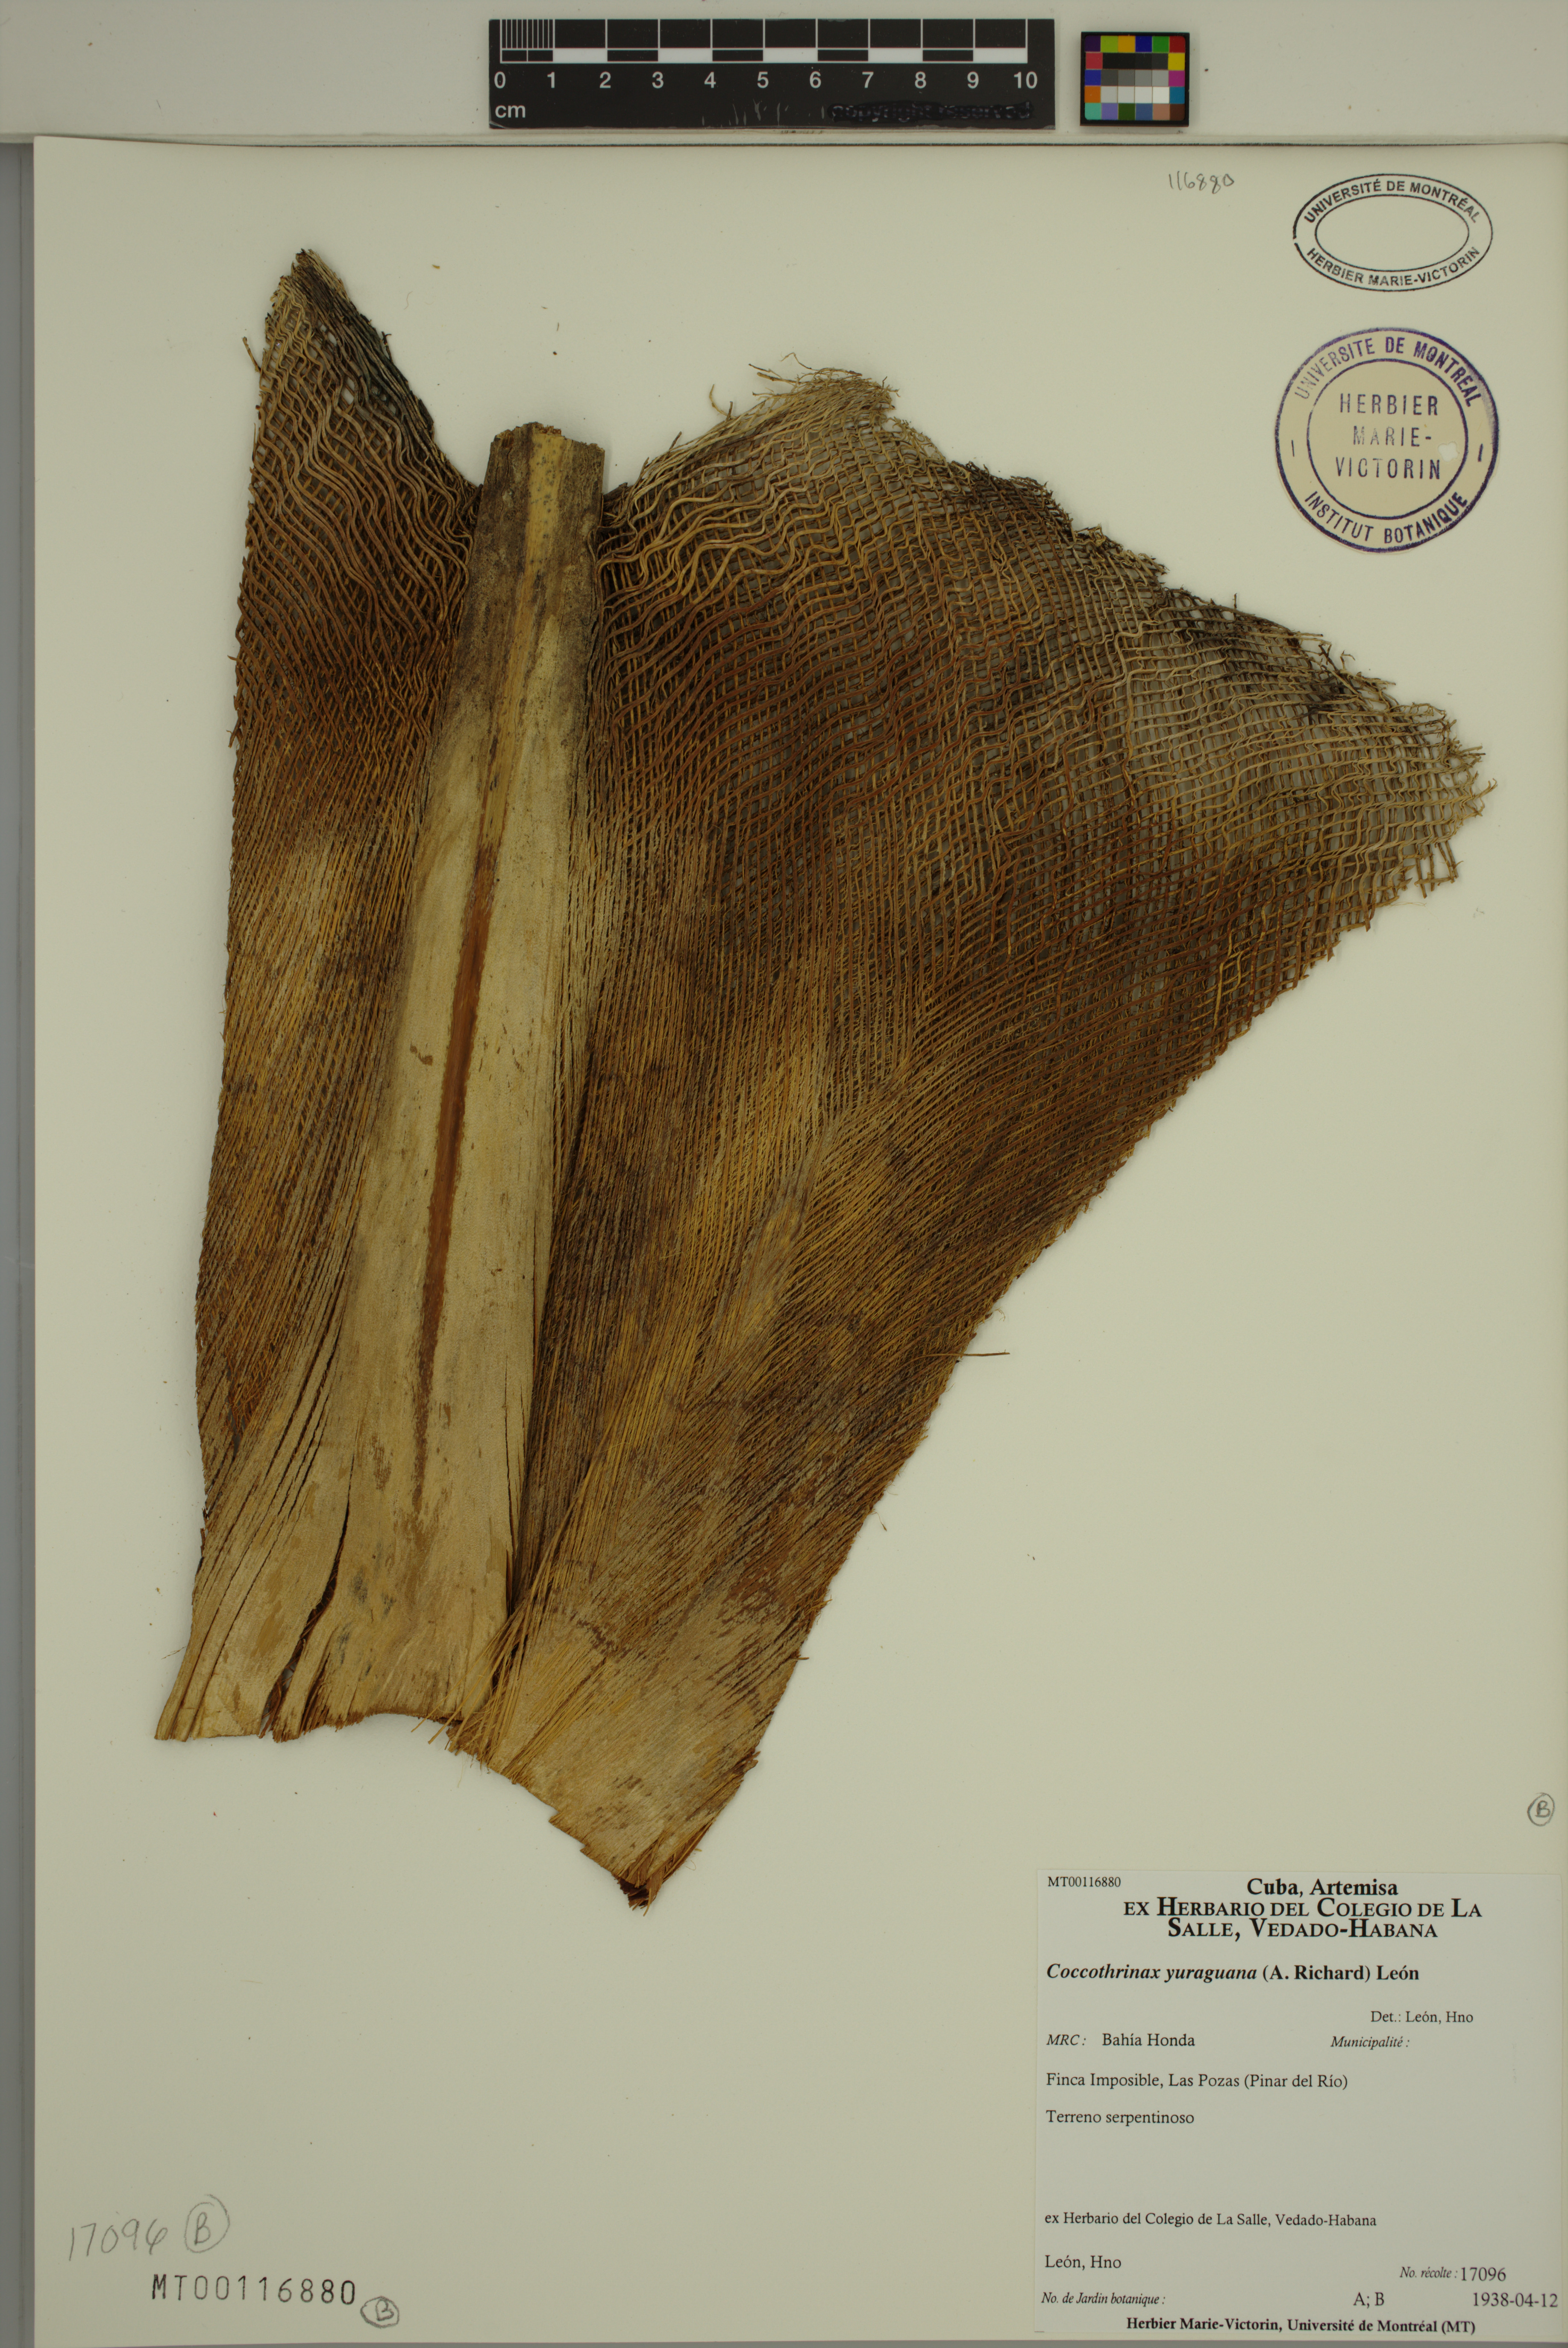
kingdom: Plantae
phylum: Tracheophyta
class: Liliopsida
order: Arecales
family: Arecaceae
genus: Coccothrinax
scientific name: Coccothrinax yuraguana
